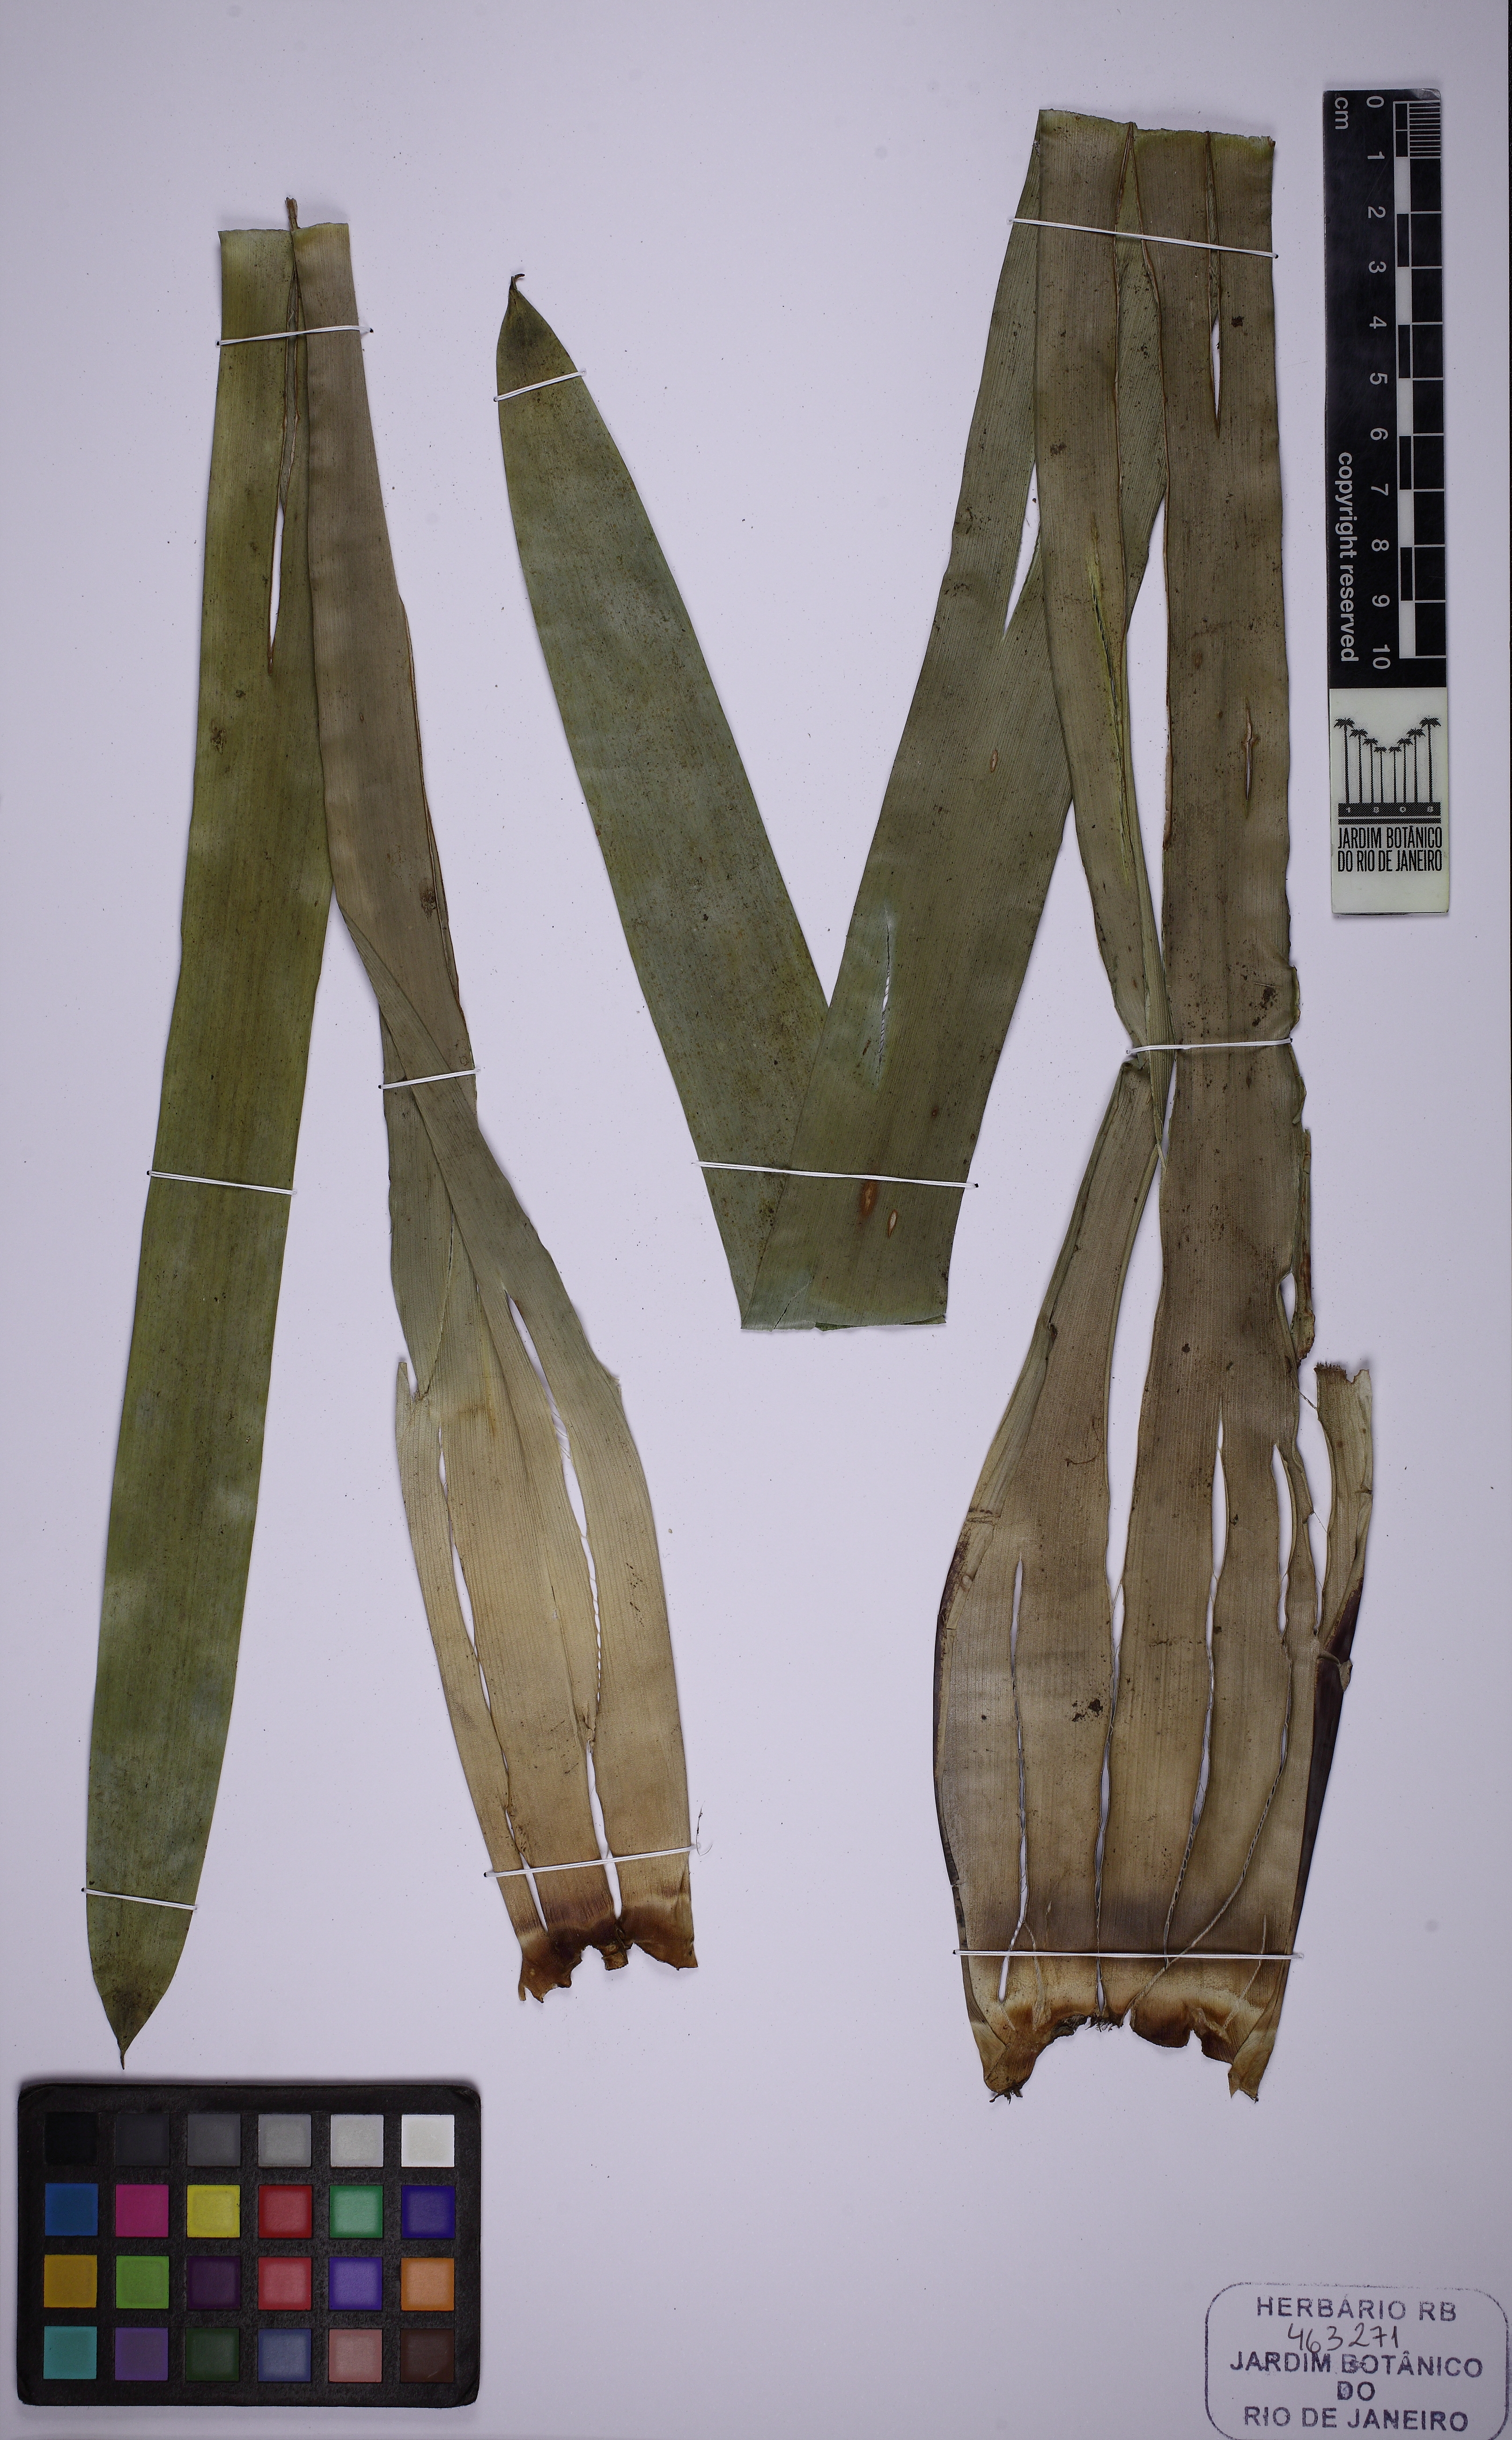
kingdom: Plantae
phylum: Tracheophyta
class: Liliopsida
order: Poales
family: Bromeliaceae
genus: Vriesea
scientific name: Vriesea longicaulis
